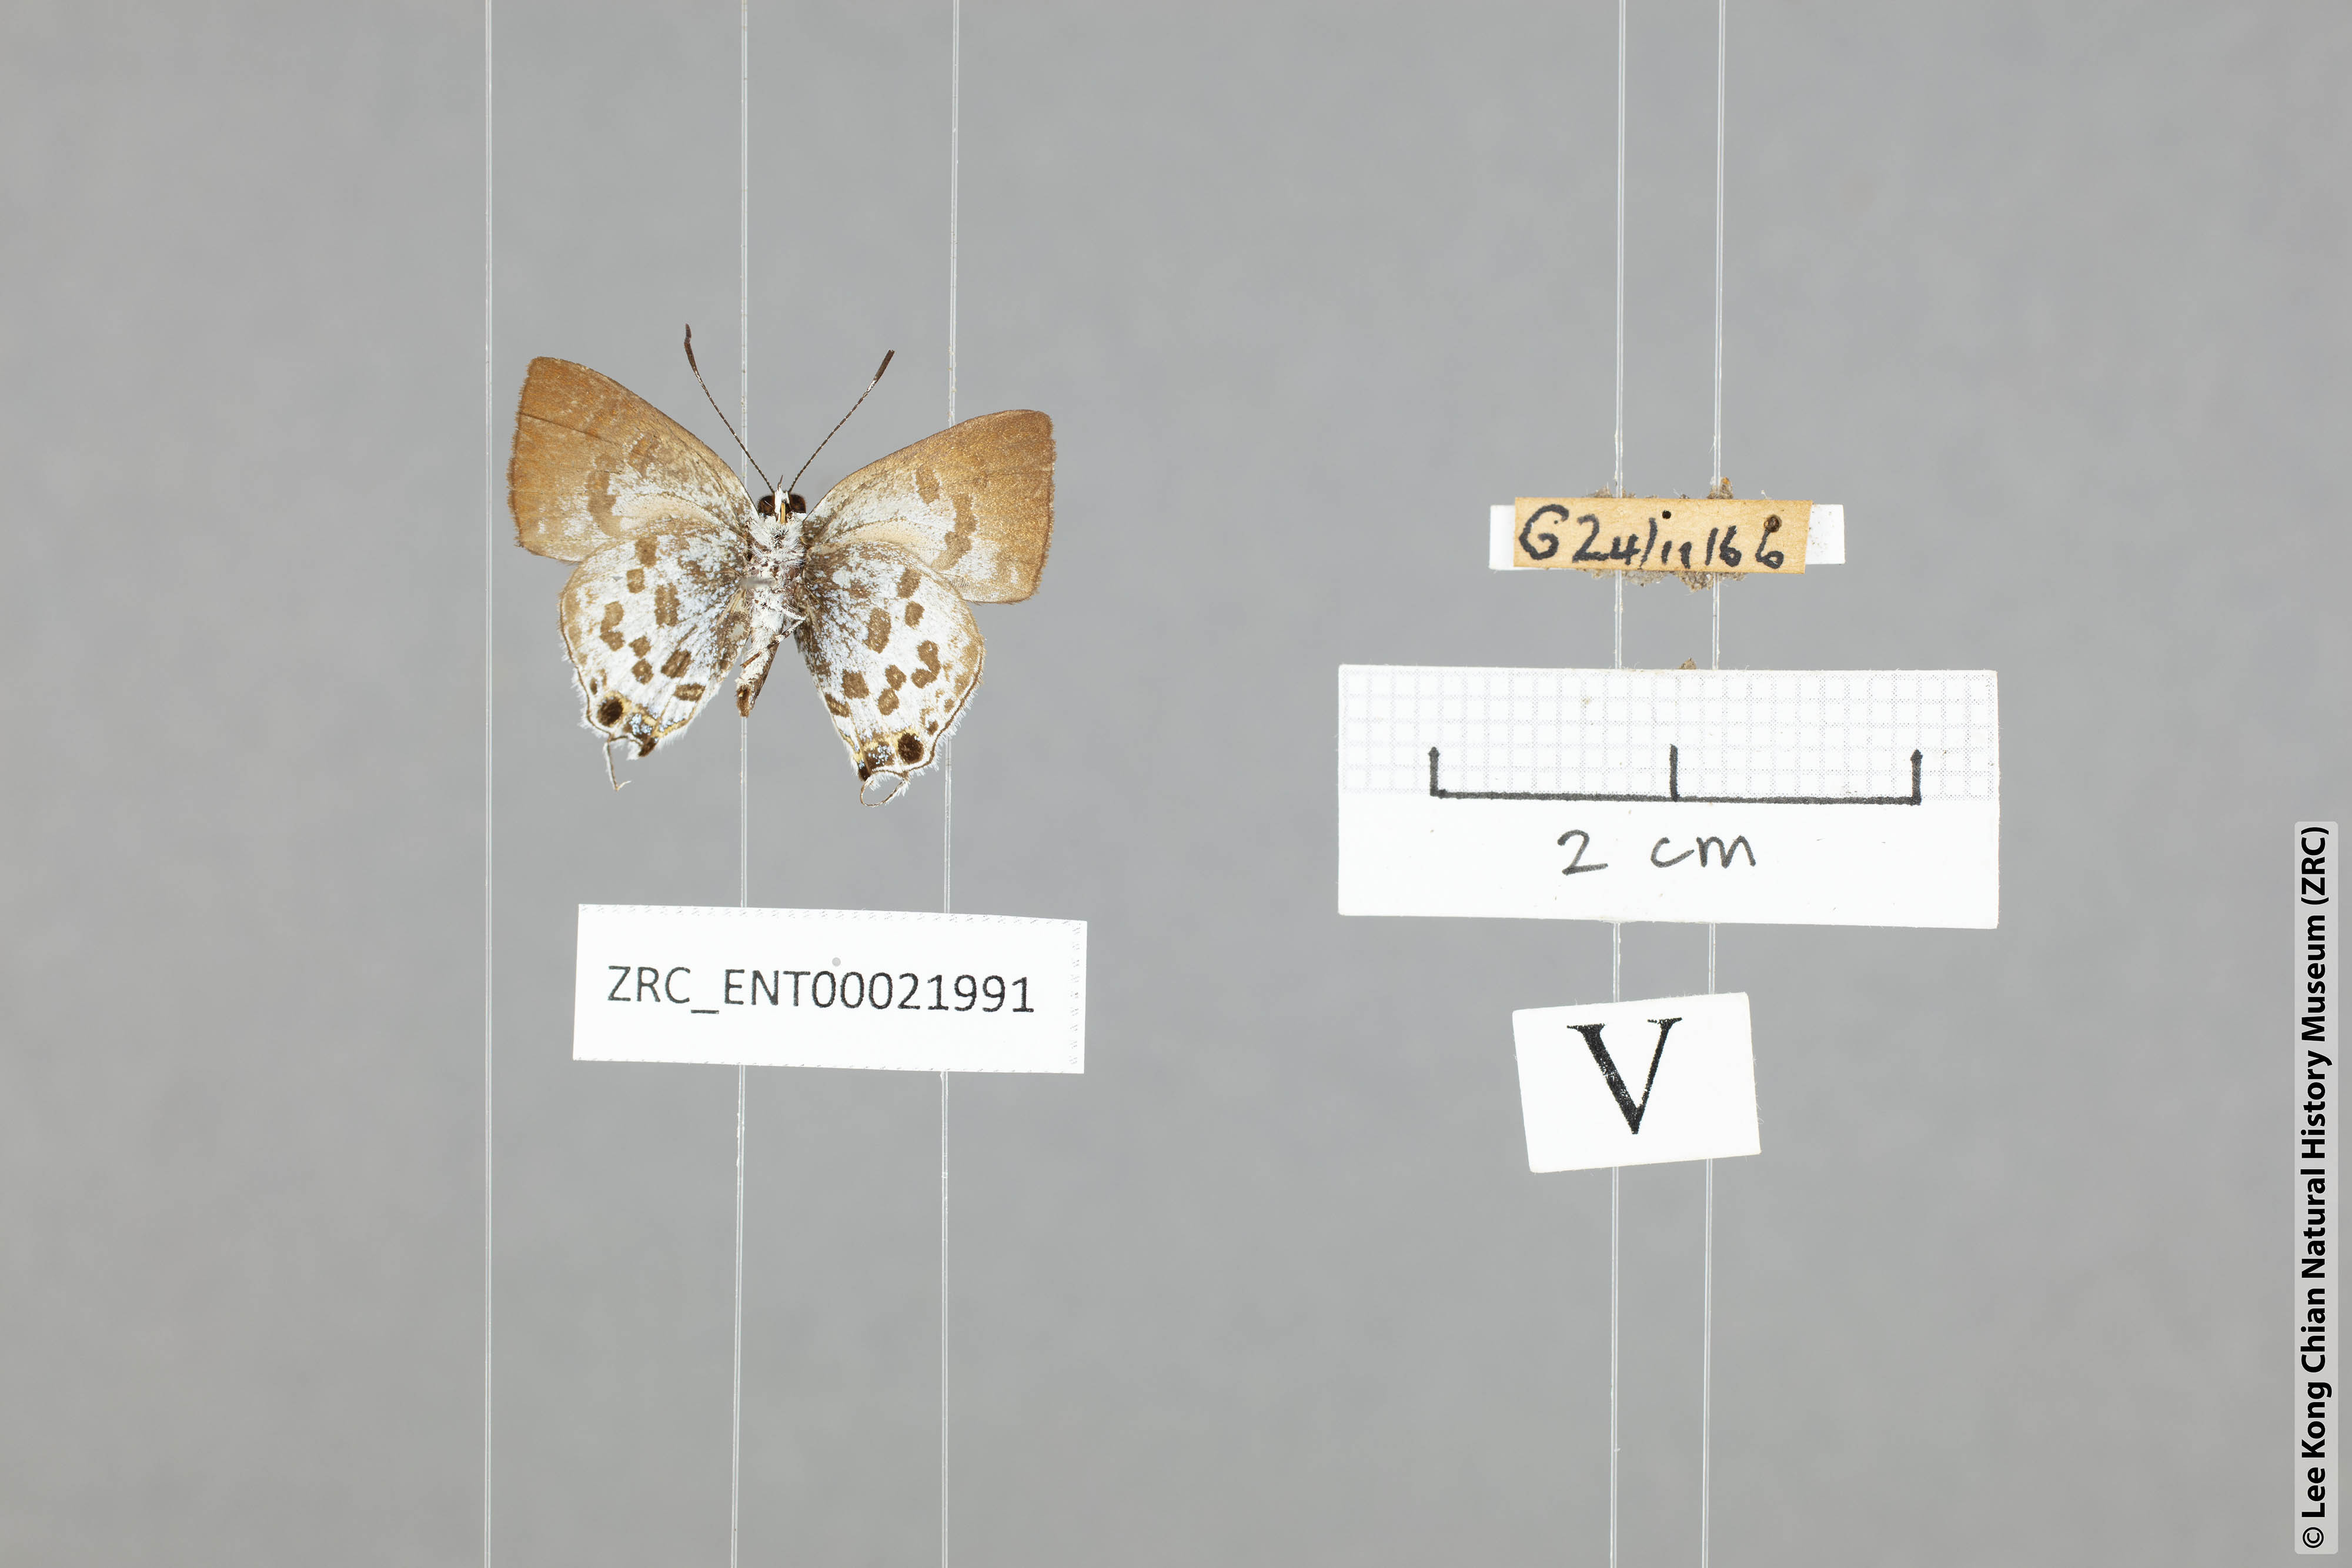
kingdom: Animalia
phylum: Arthropoda
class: Insecta
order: Lepidoptera
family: Lycaenidae
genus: Sinthusa
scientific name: Sinthusa malika
